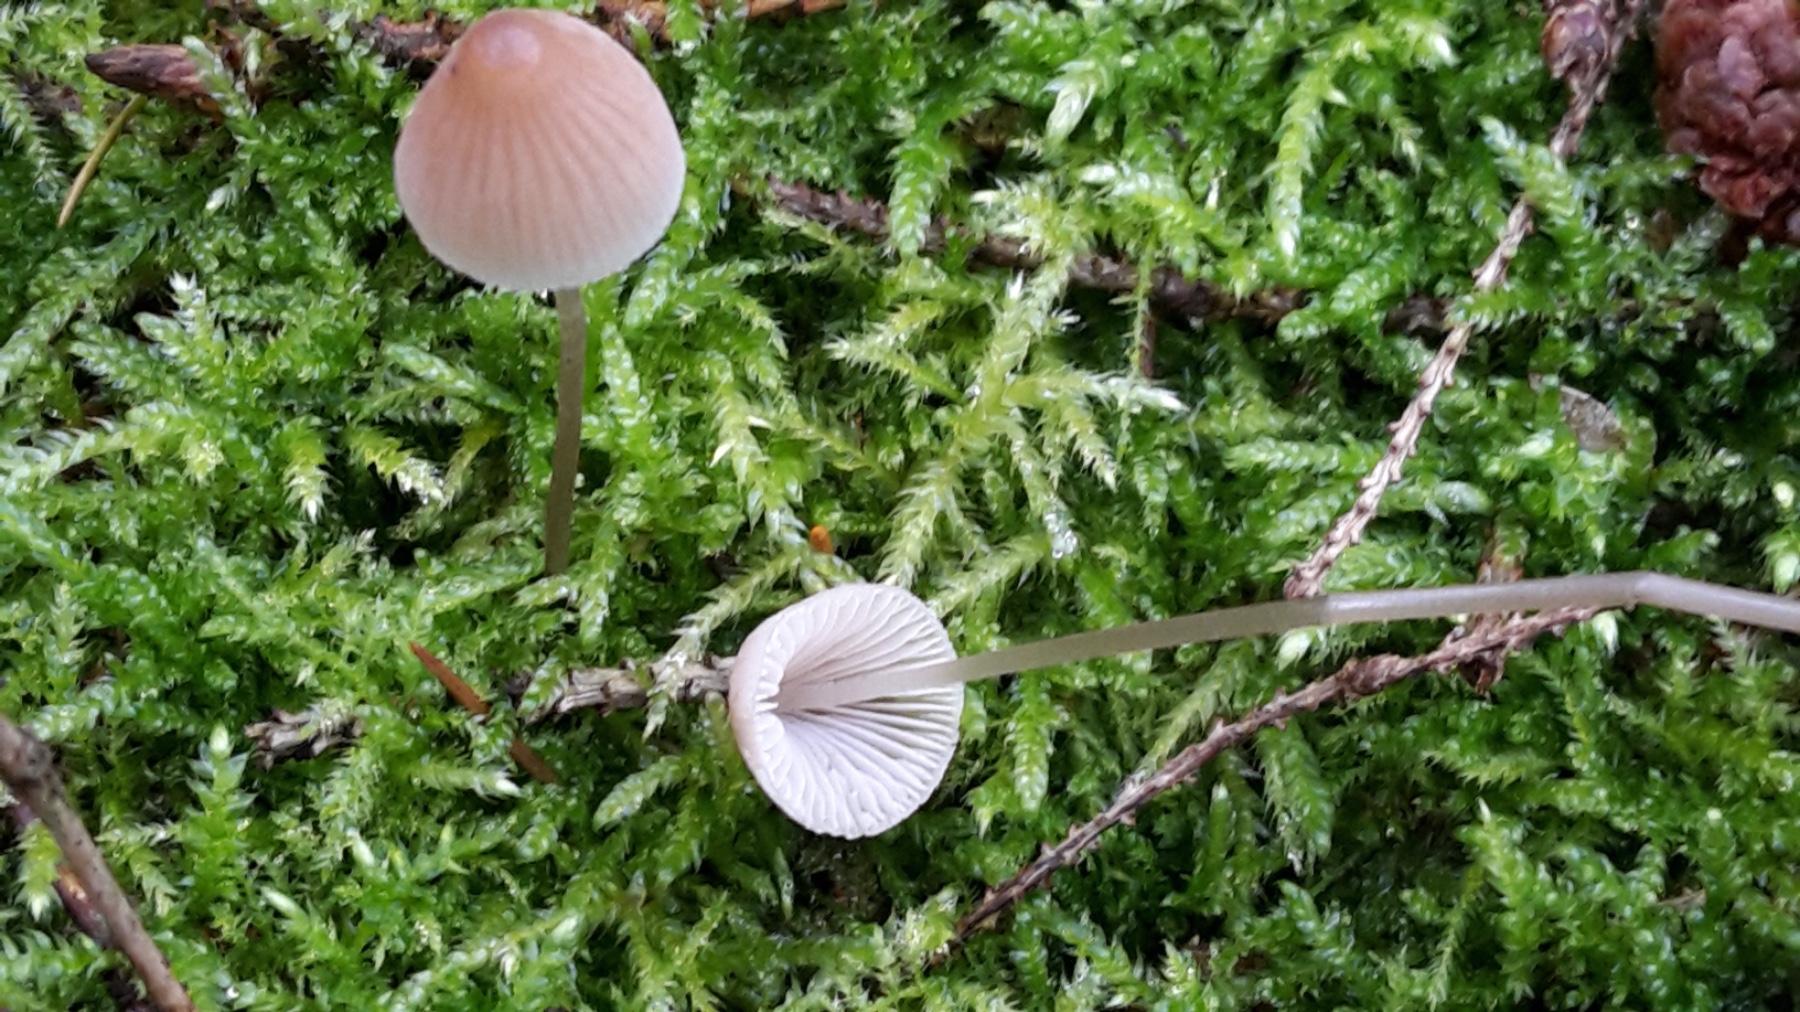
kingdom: Fungi
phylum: Basidiomycota
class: Agaricomycetes
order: Agaricales
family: Mycenaceae
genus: Mycena
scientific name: Mycena metata
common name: rødlig huesvamp
